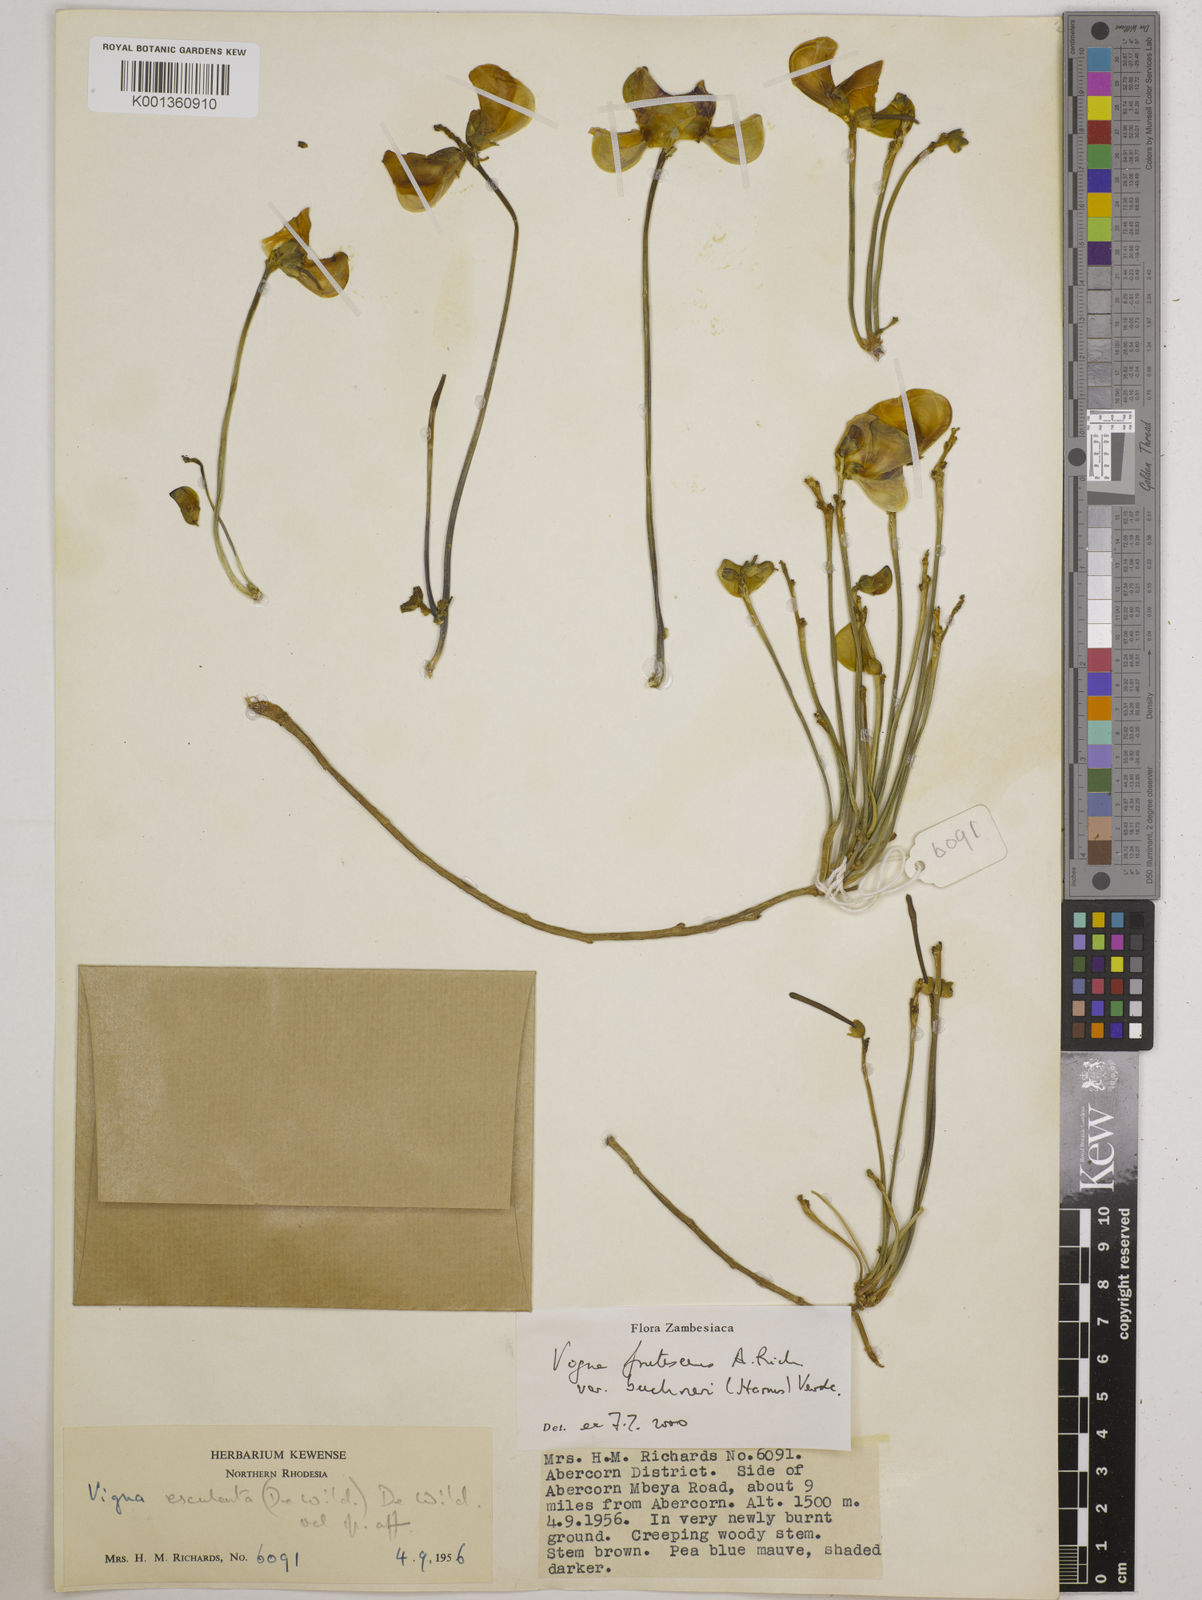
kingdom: Plantae
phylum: Tracheophyta
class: Magnoliopsida
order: Fabales
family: Fabaceae
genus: Vigna
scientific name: Vigna
